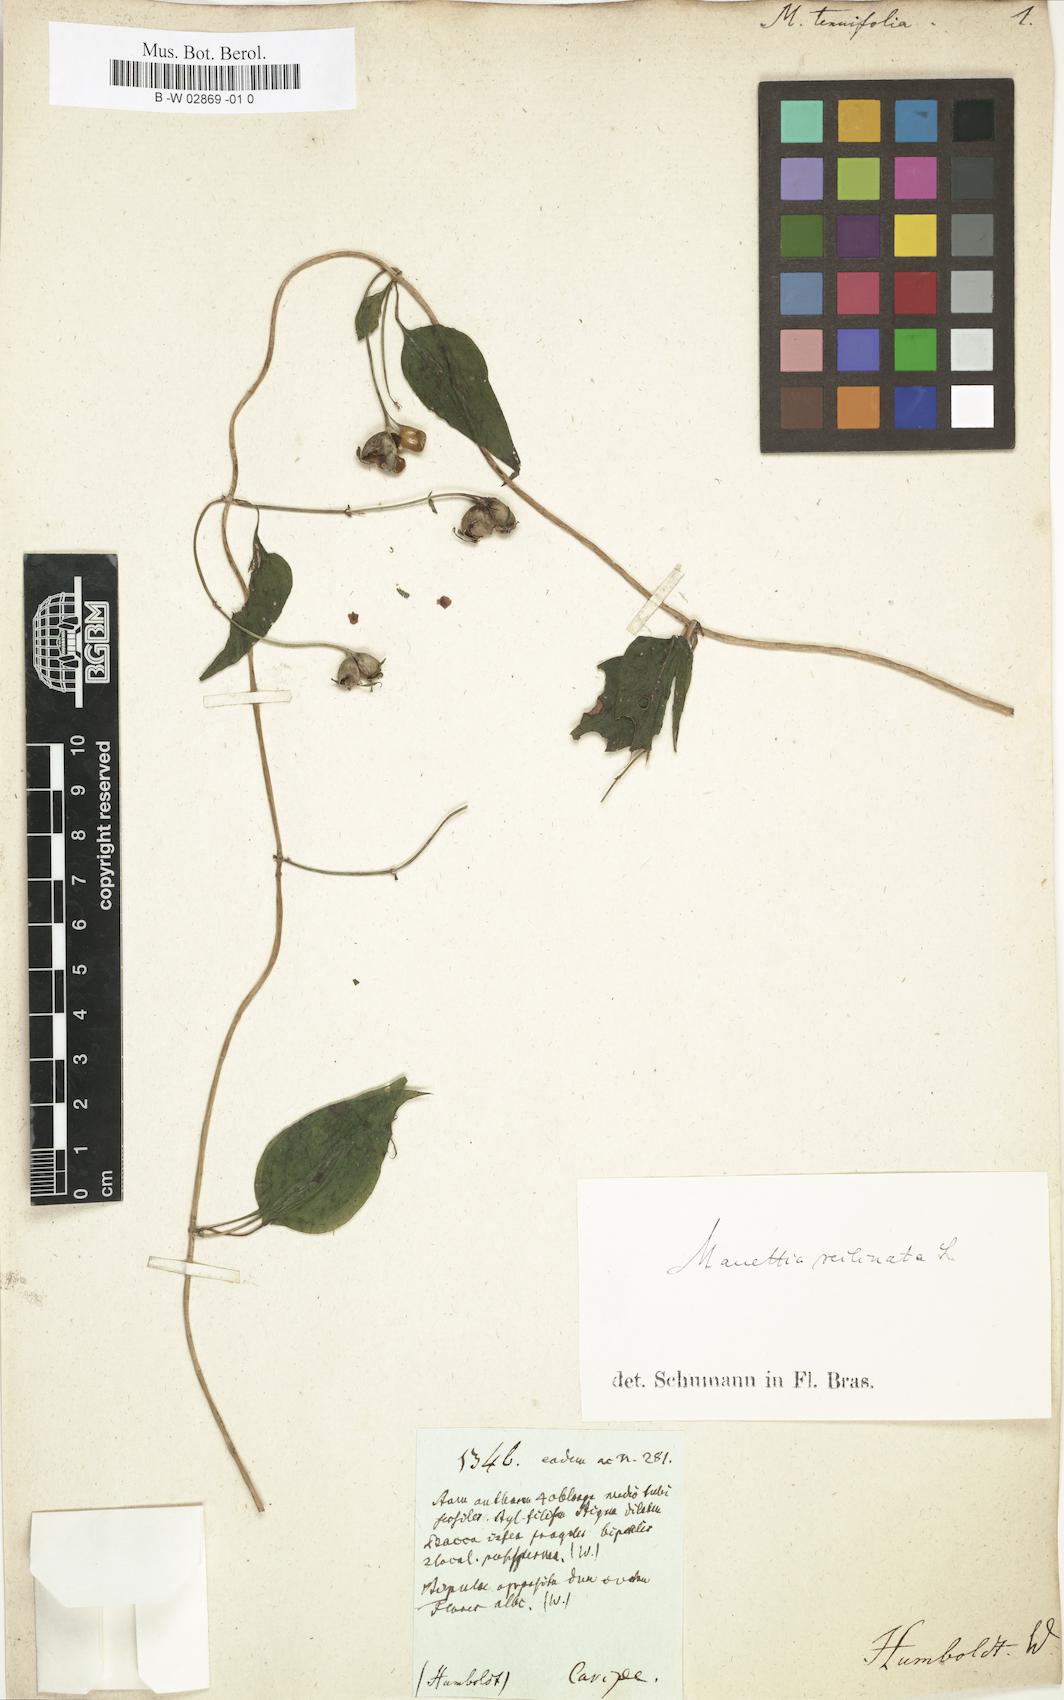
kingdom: Plantae
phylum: Tracheophyta
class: Magnoliopsida
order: Gentianales
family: Rubiaceae
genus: Manettia
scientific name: Manettia reclinata
